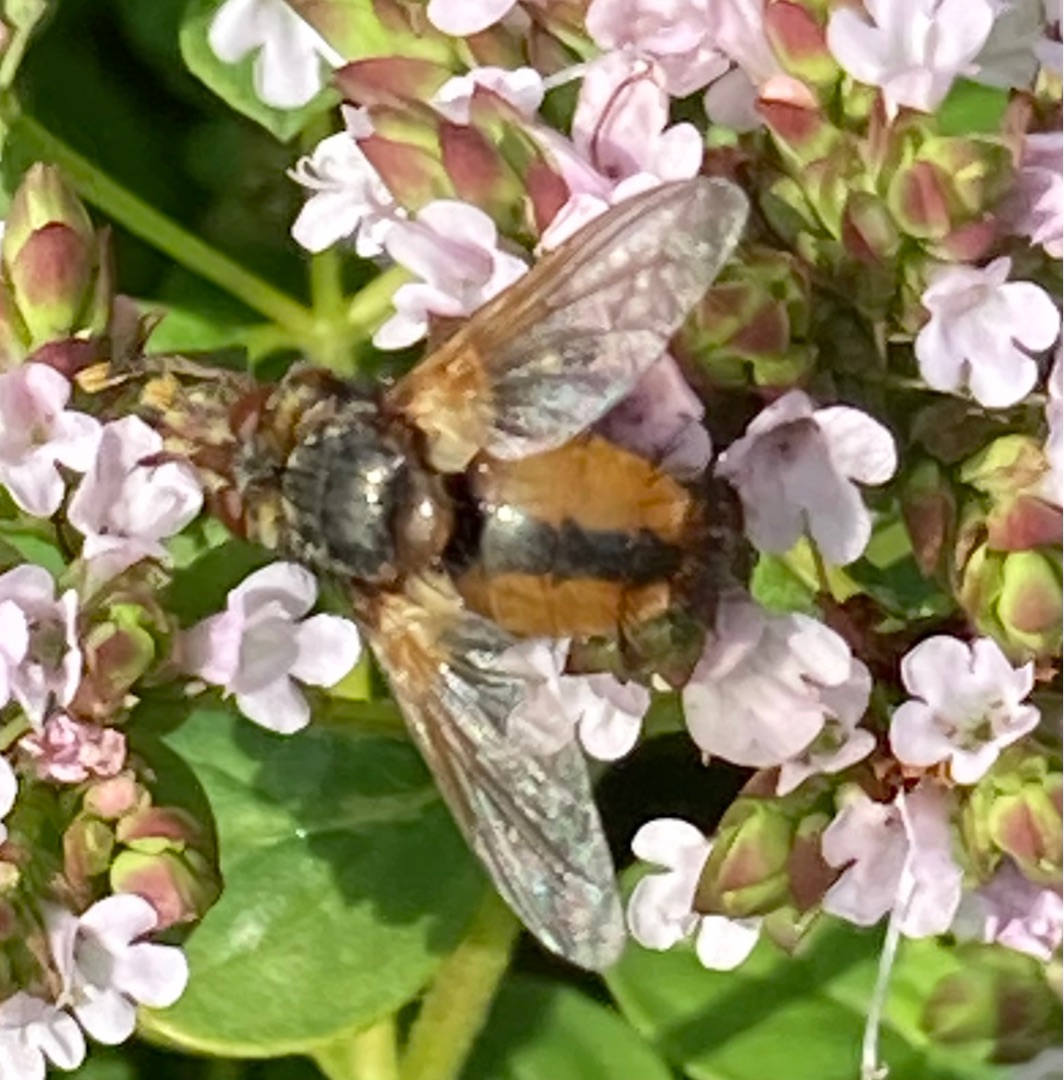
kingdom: Animalia
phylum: Arthropoda
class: Insecta
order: Diptera
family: Tachinidae
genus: Tachina
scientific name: Tachina fera
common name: Mellemfluen oskar
